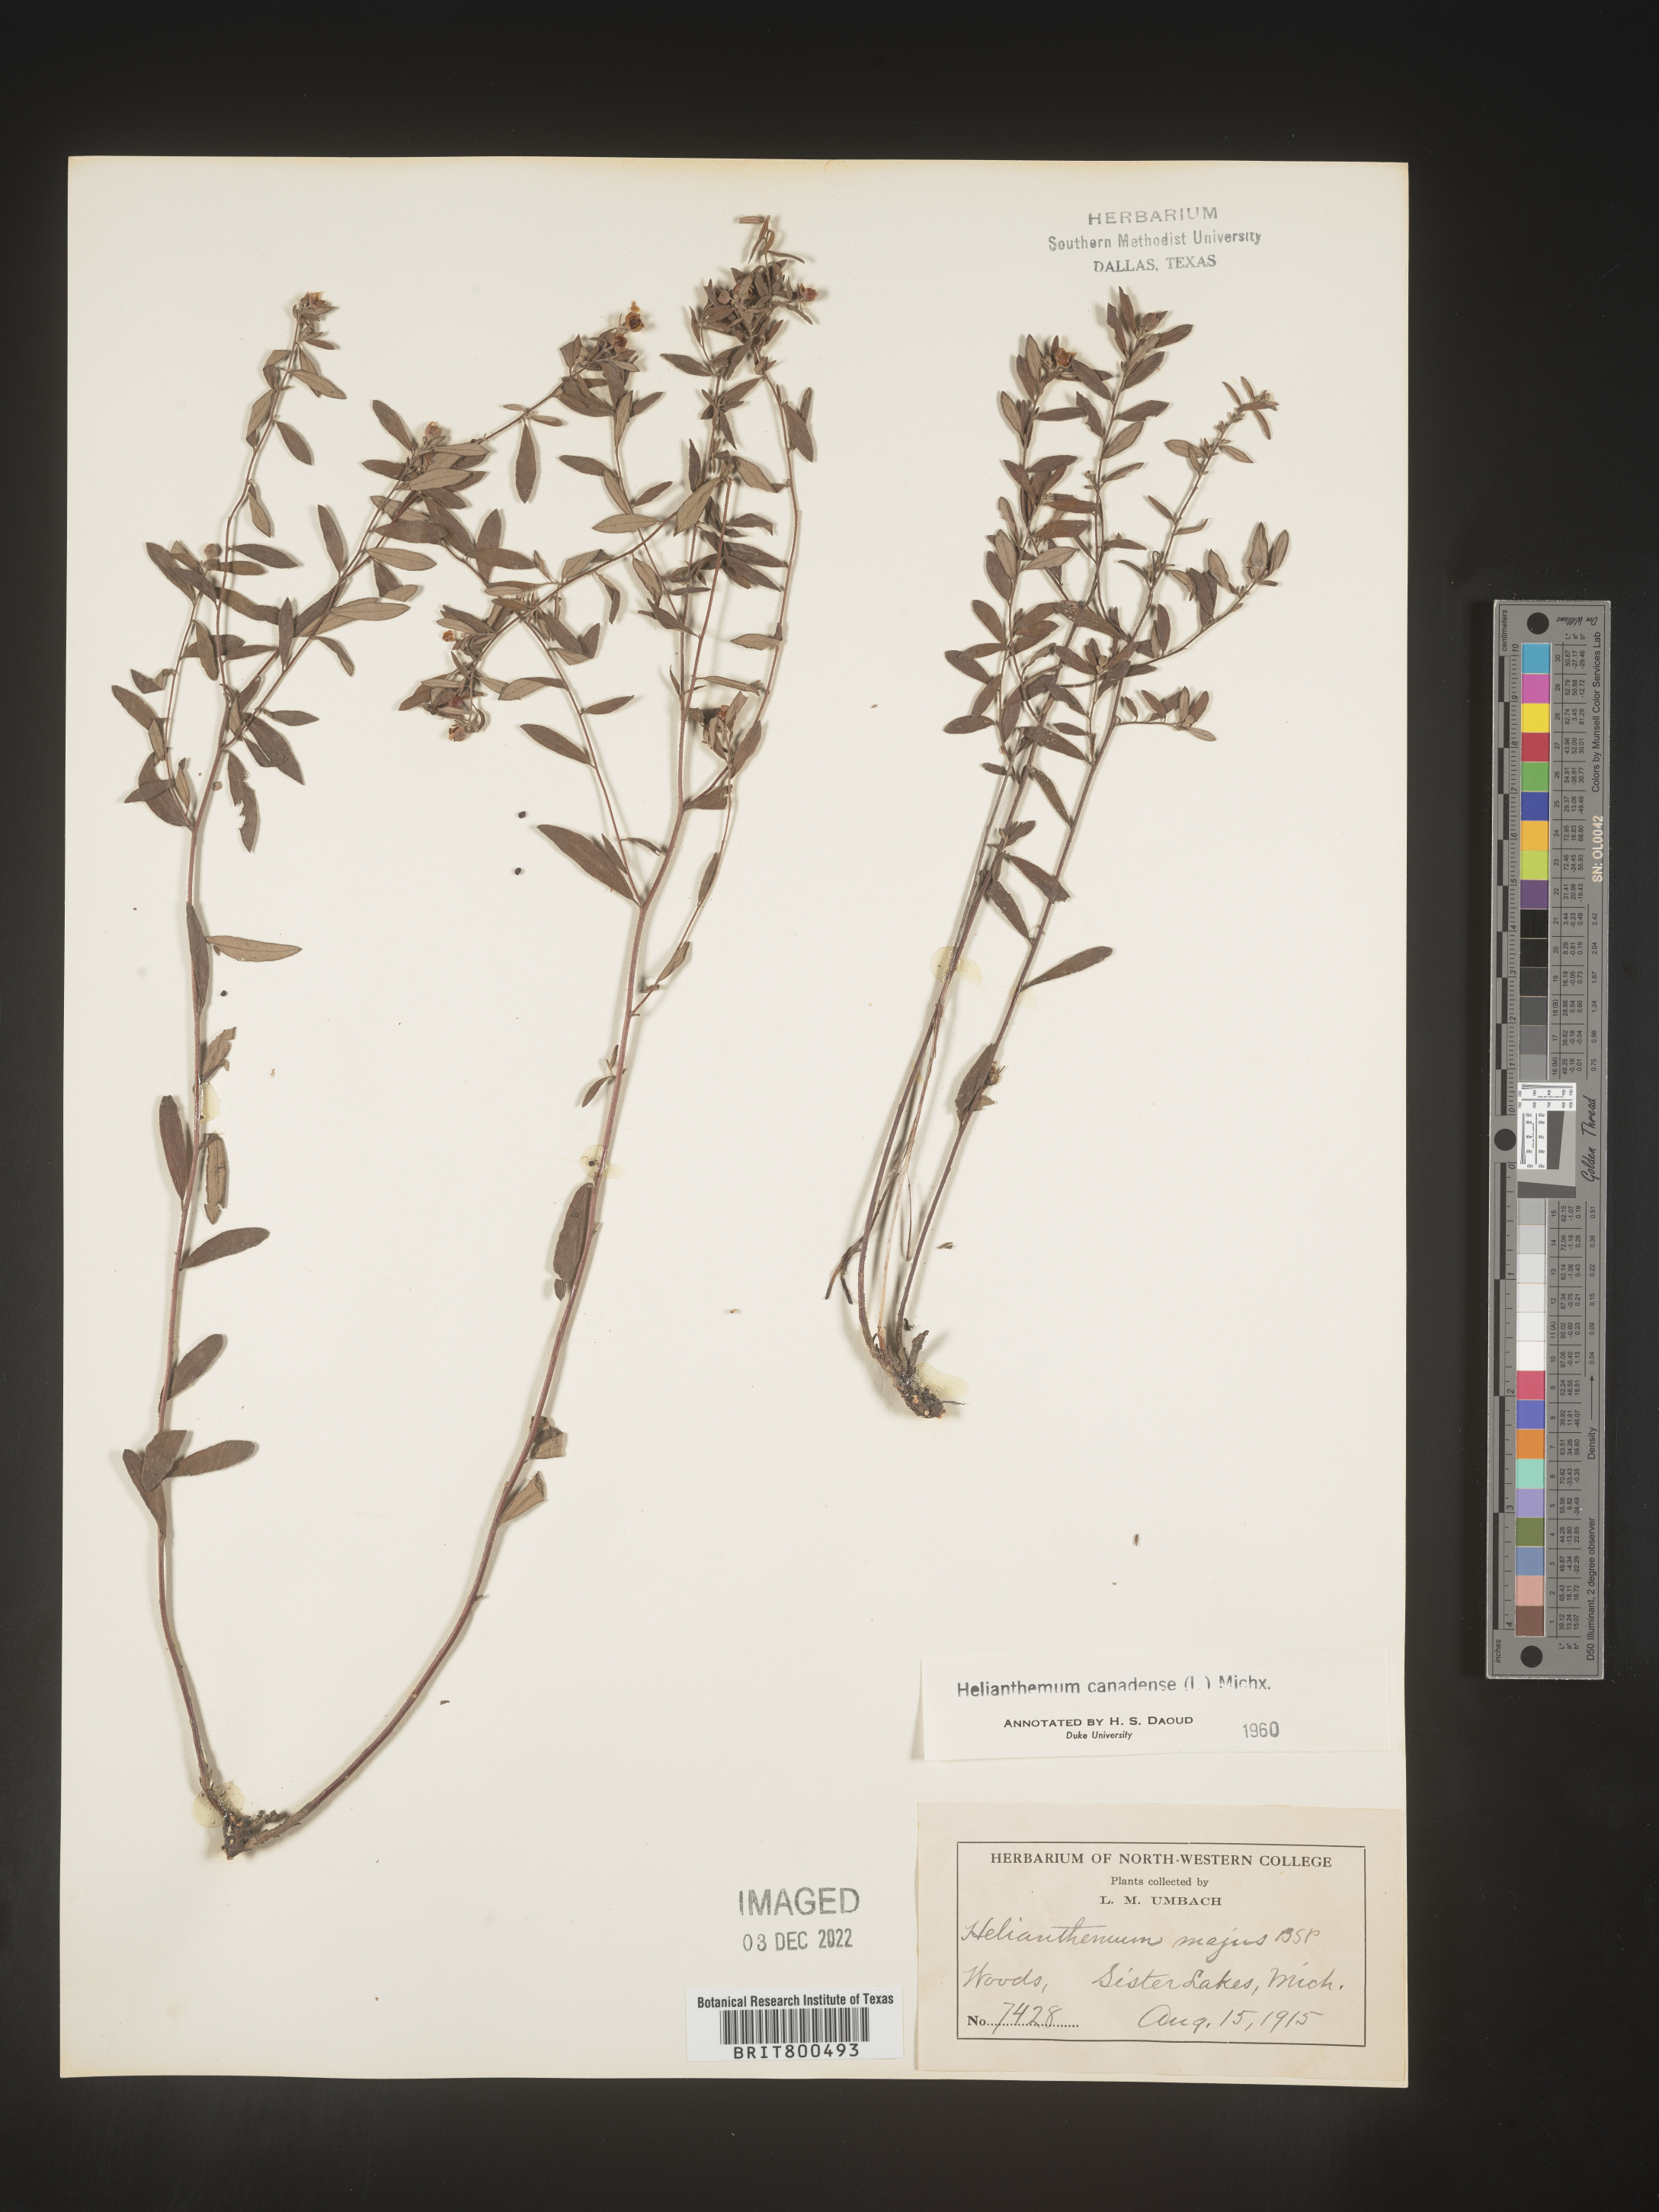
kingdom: Plantae
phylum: Tracheophyta
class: Magnoliopsida
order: Malvales
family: Cistaceae
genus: Crocanthemum
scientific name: Crocanthemum canadense
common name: Canada frostweed
